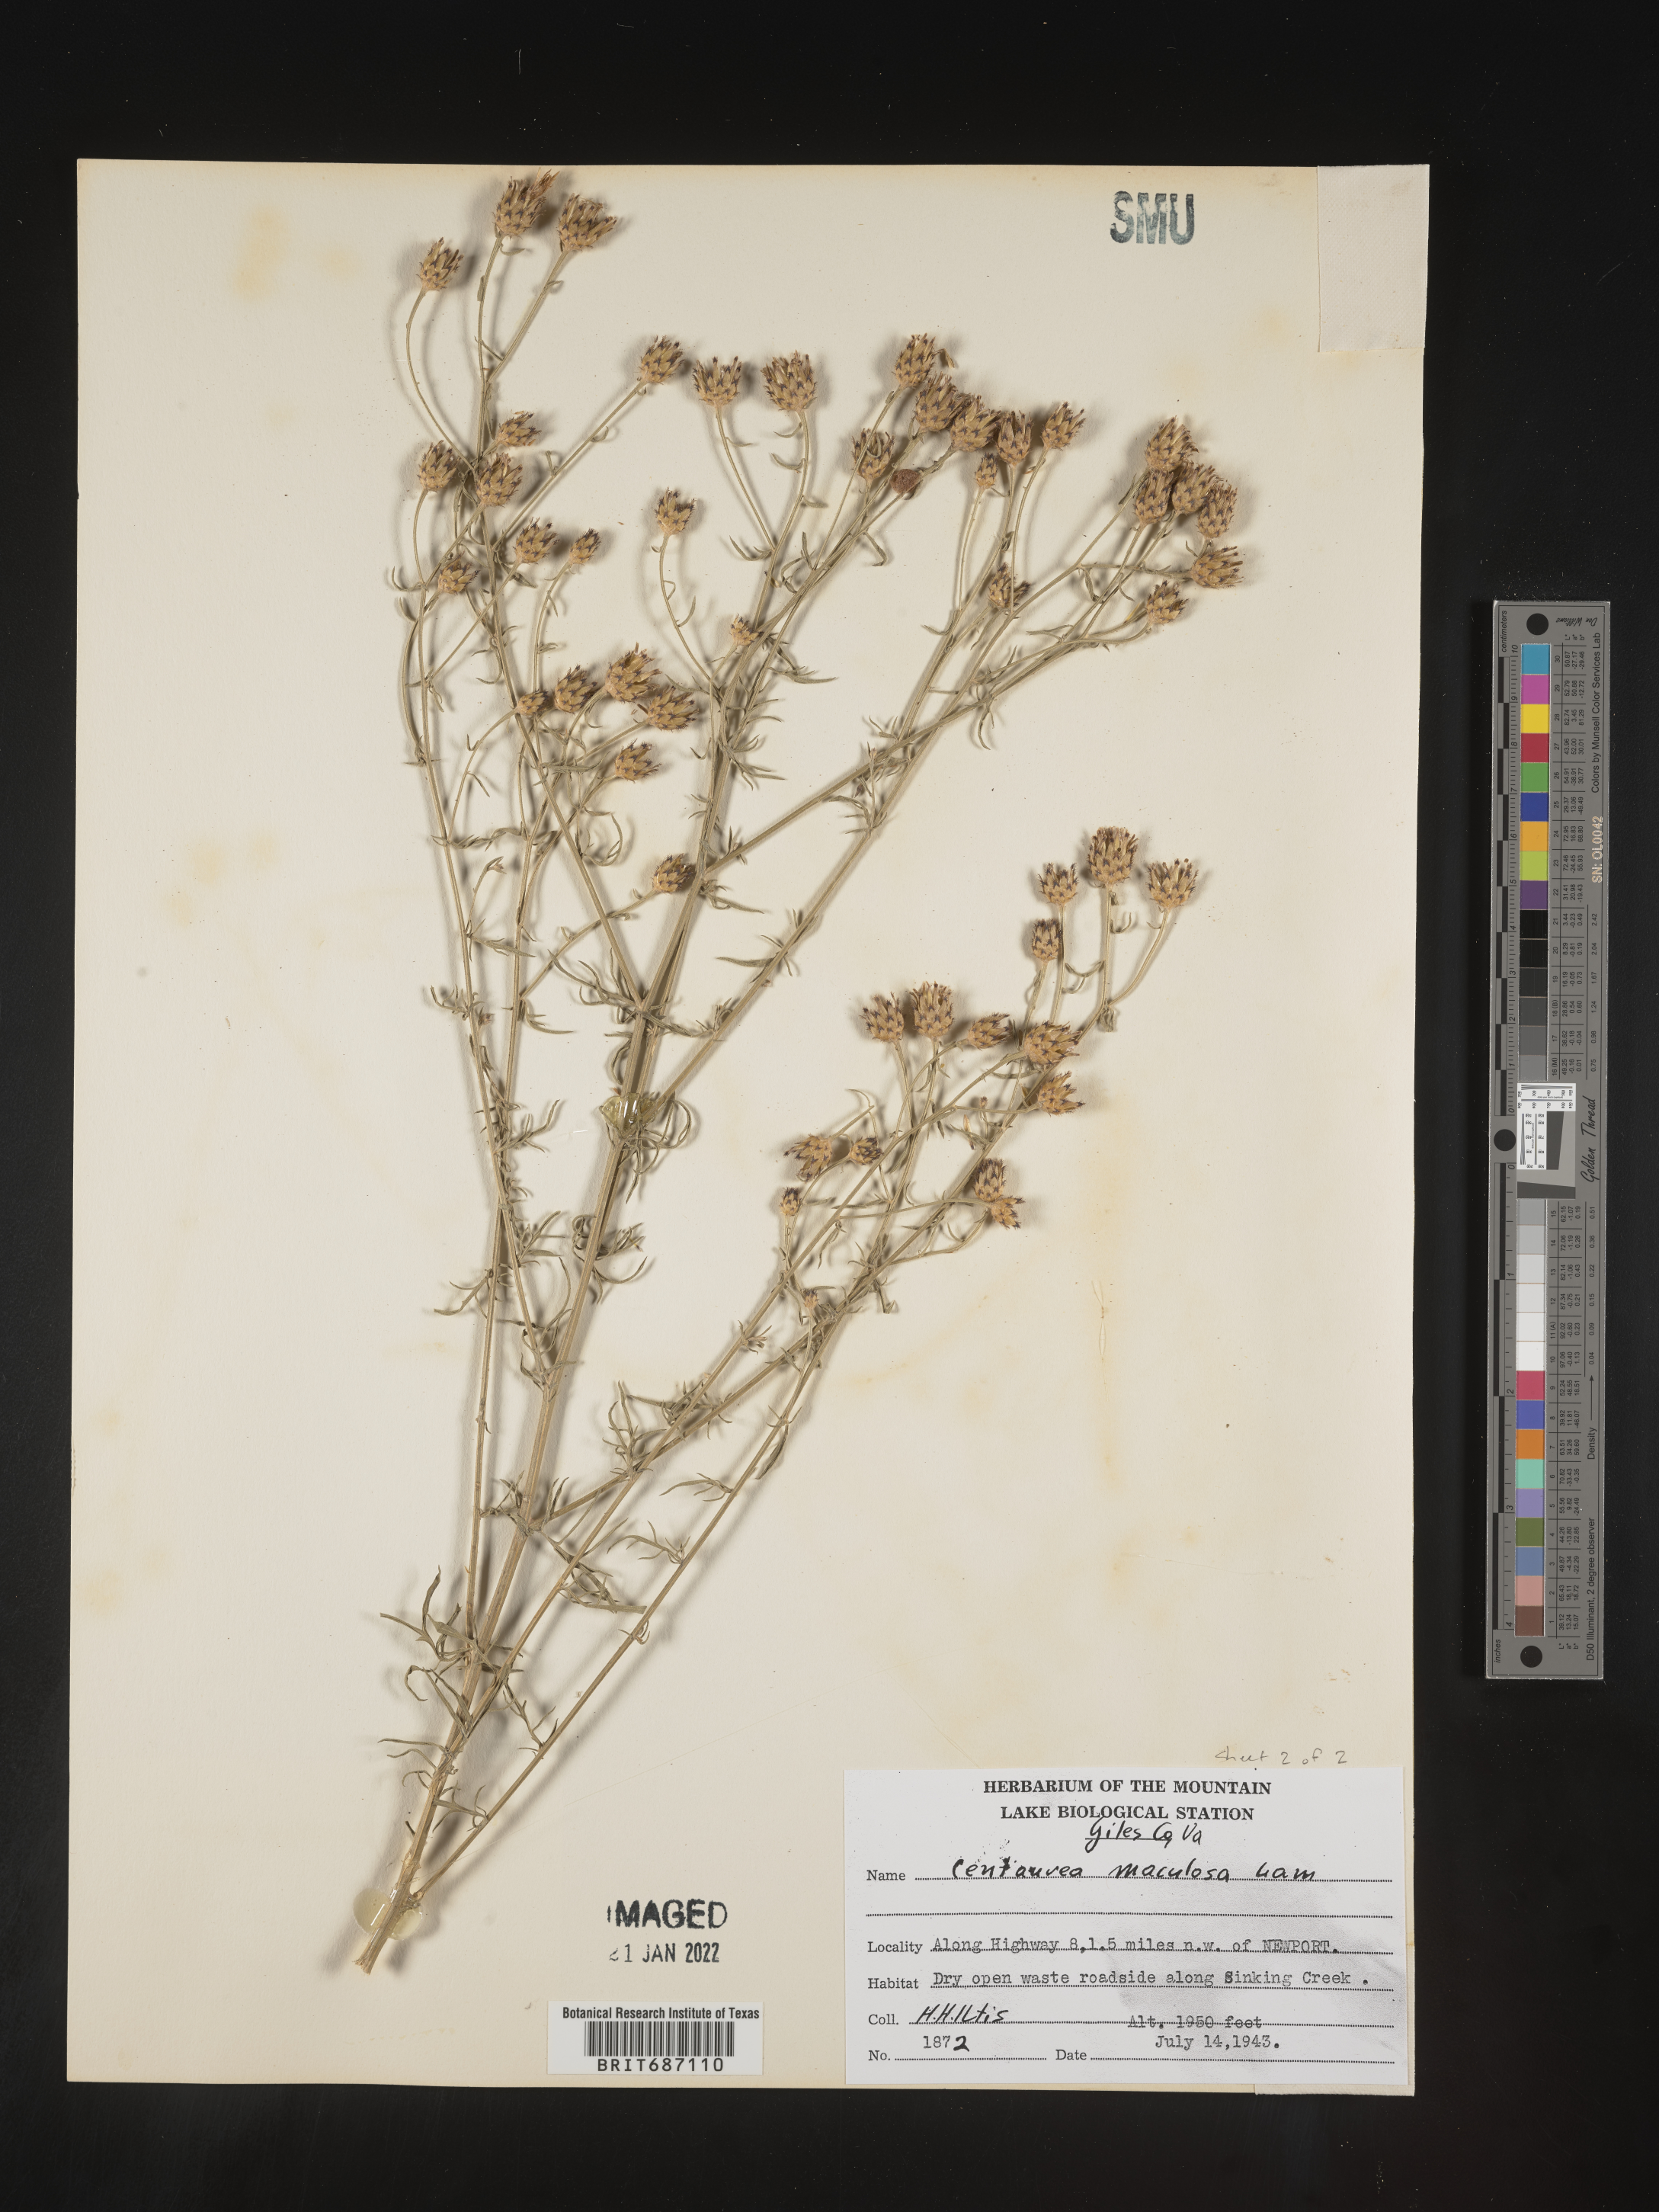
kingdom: Plantae
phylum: Tracheophyta
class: Magnoliopsida
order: Asterales
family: Asteraceae
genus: Centaurea
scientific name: Centaurea stoebe
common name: Spotted knapweed
